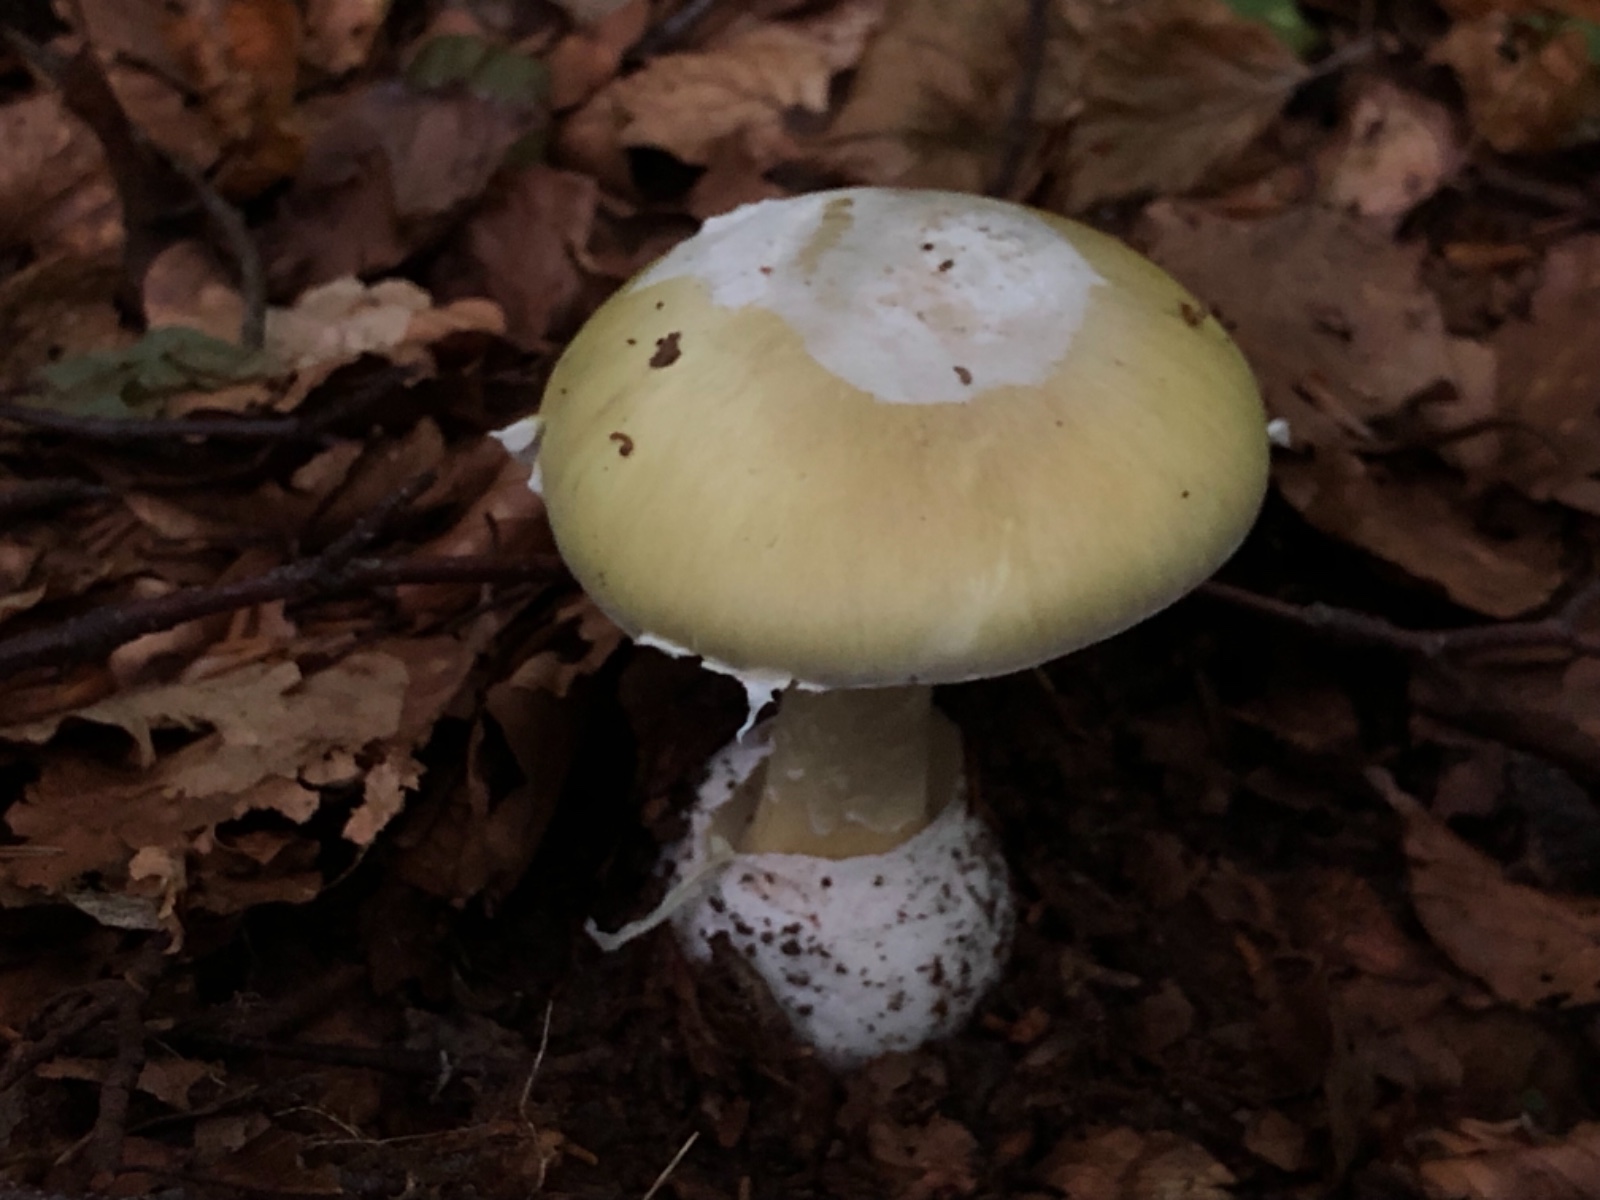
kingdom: Fungi
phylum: Basidiomycota
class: Agaricomycetes
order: Agaricales
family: Amanitaceae
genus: Amanita
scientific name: Amanita phalloides
